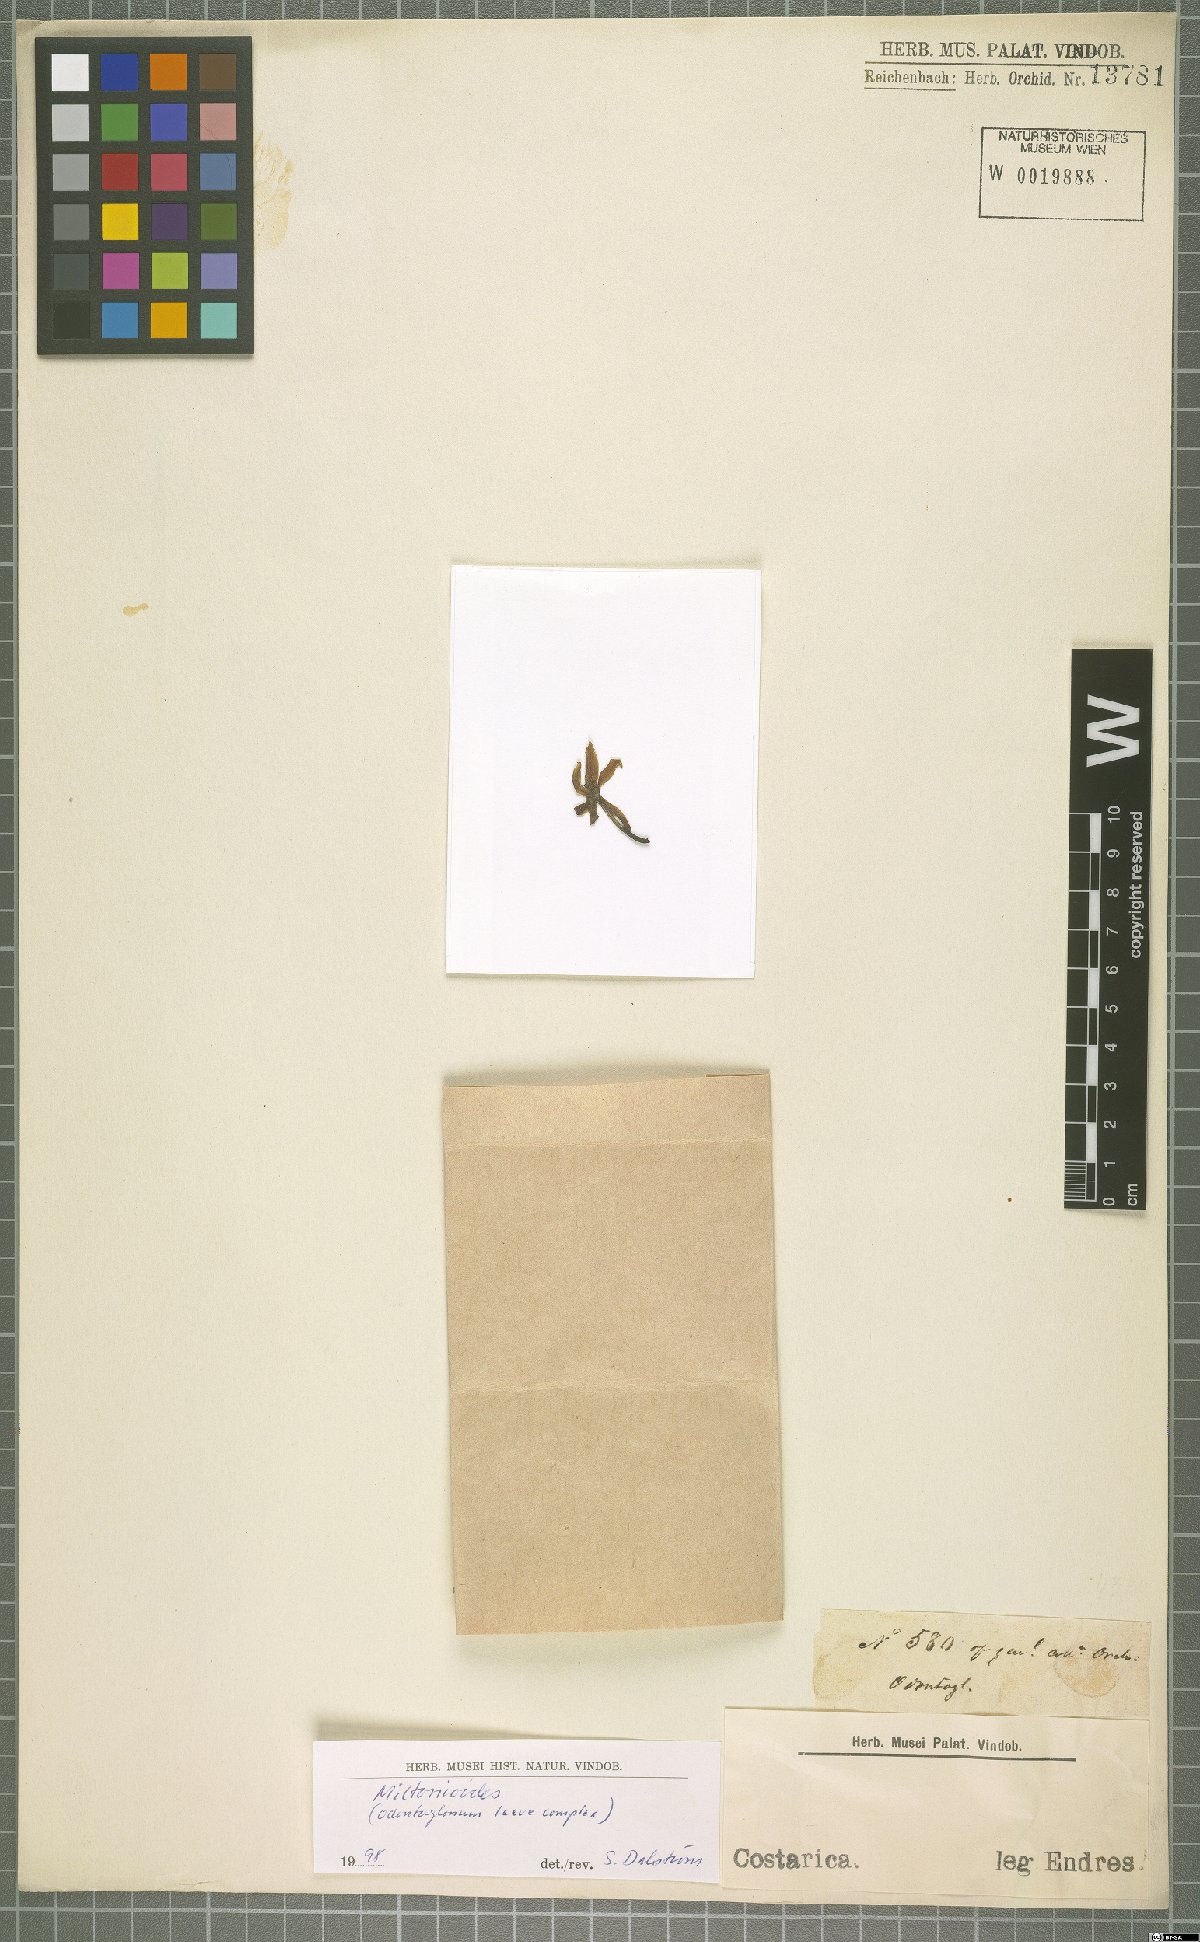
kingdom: Plantae
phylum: Tracheophyta
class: Liliopsida
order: Asparagales
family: Orchidaceae
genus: Oncidium
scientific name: Oncidium
